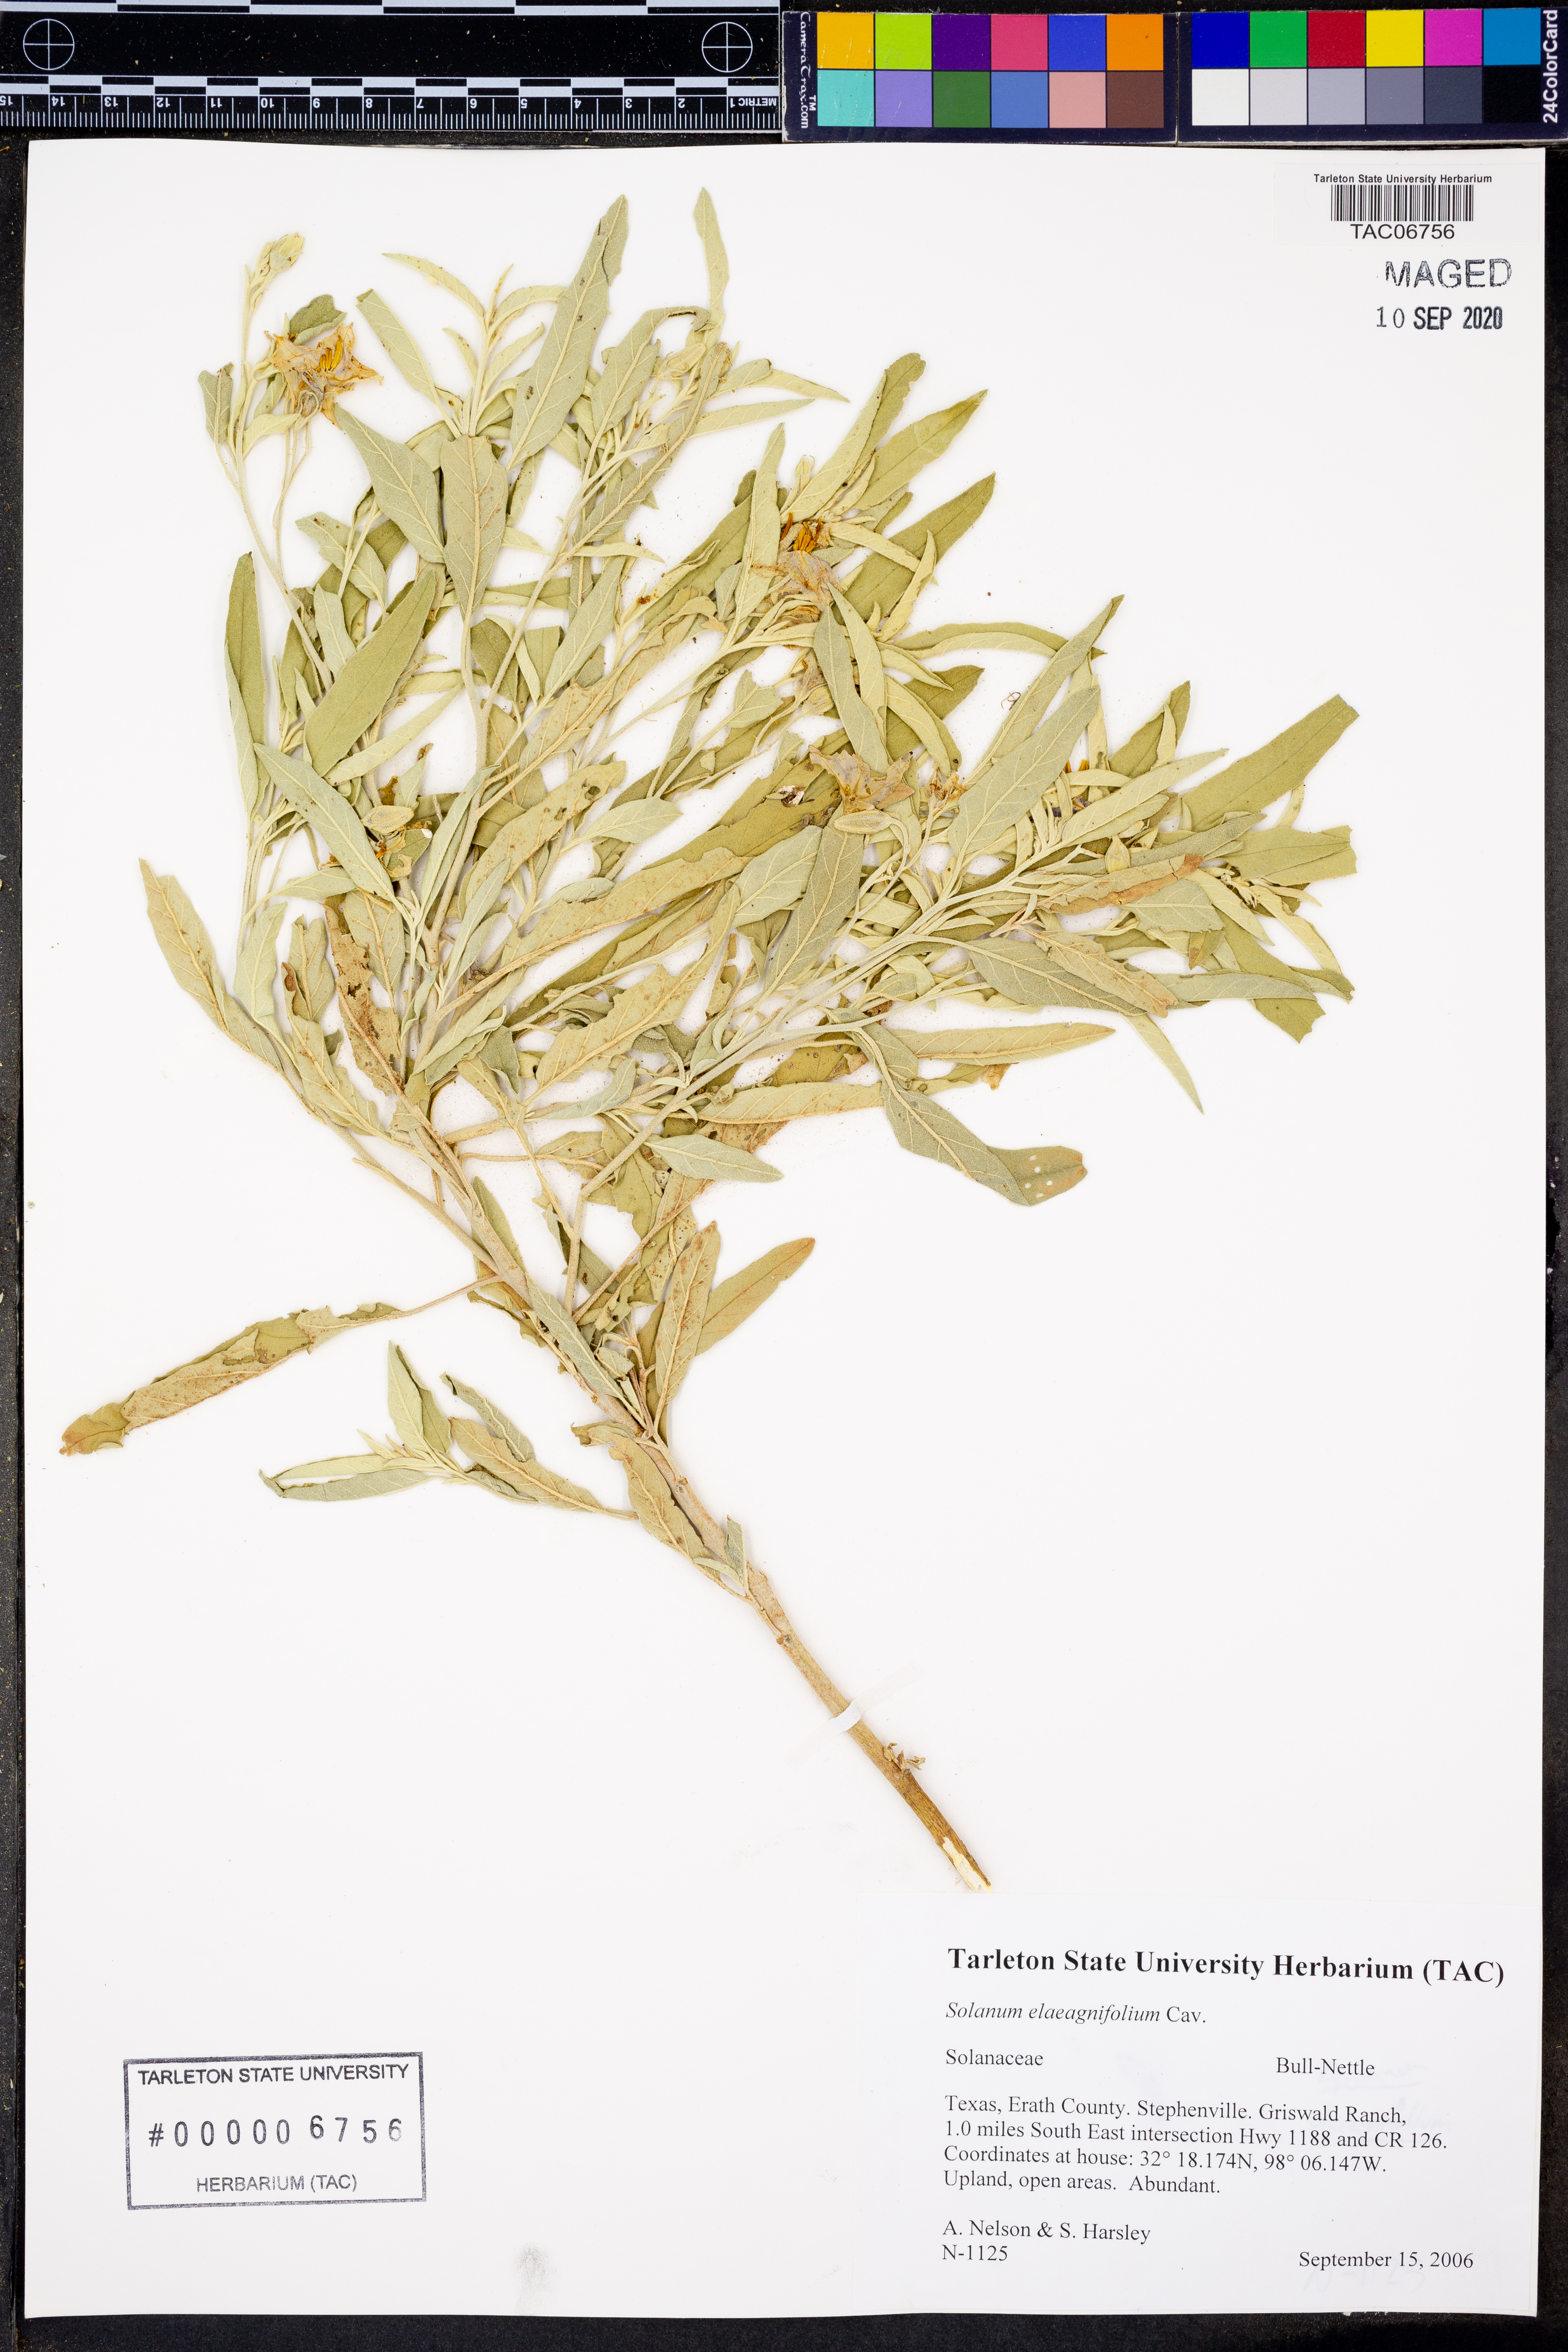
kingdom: Plantae
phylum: Tracheophyta
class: Magnoliopsida
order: Solanales
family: Solanaceae
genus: Solanum
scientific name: Solanum elaeagnifolium
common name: Silverleaf nightshade
